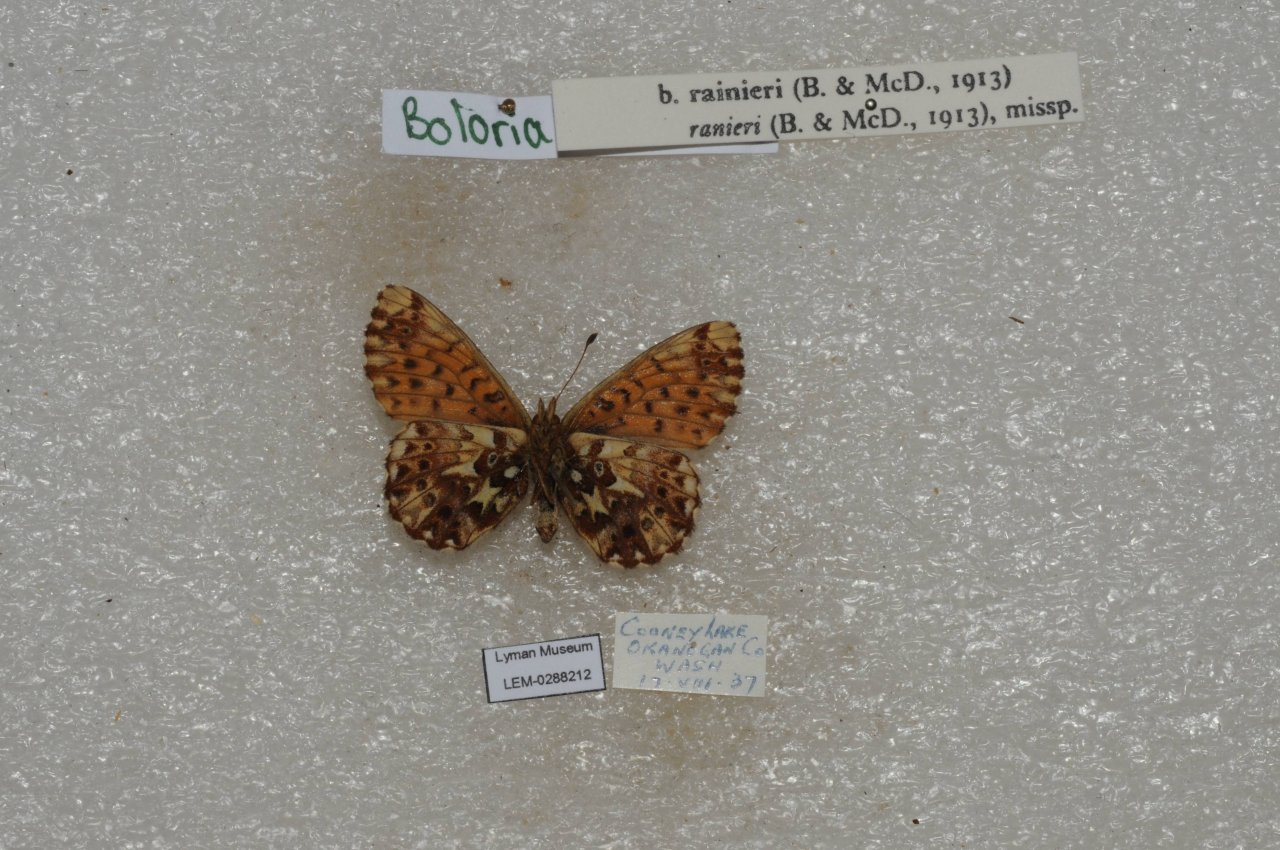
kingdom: Animalia
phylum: Arthropoda
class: Insecta
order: Lepidoptera
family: Nymphalidae
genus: Boloria
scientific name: Boloria chariclea
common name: Arctic Fritillary
